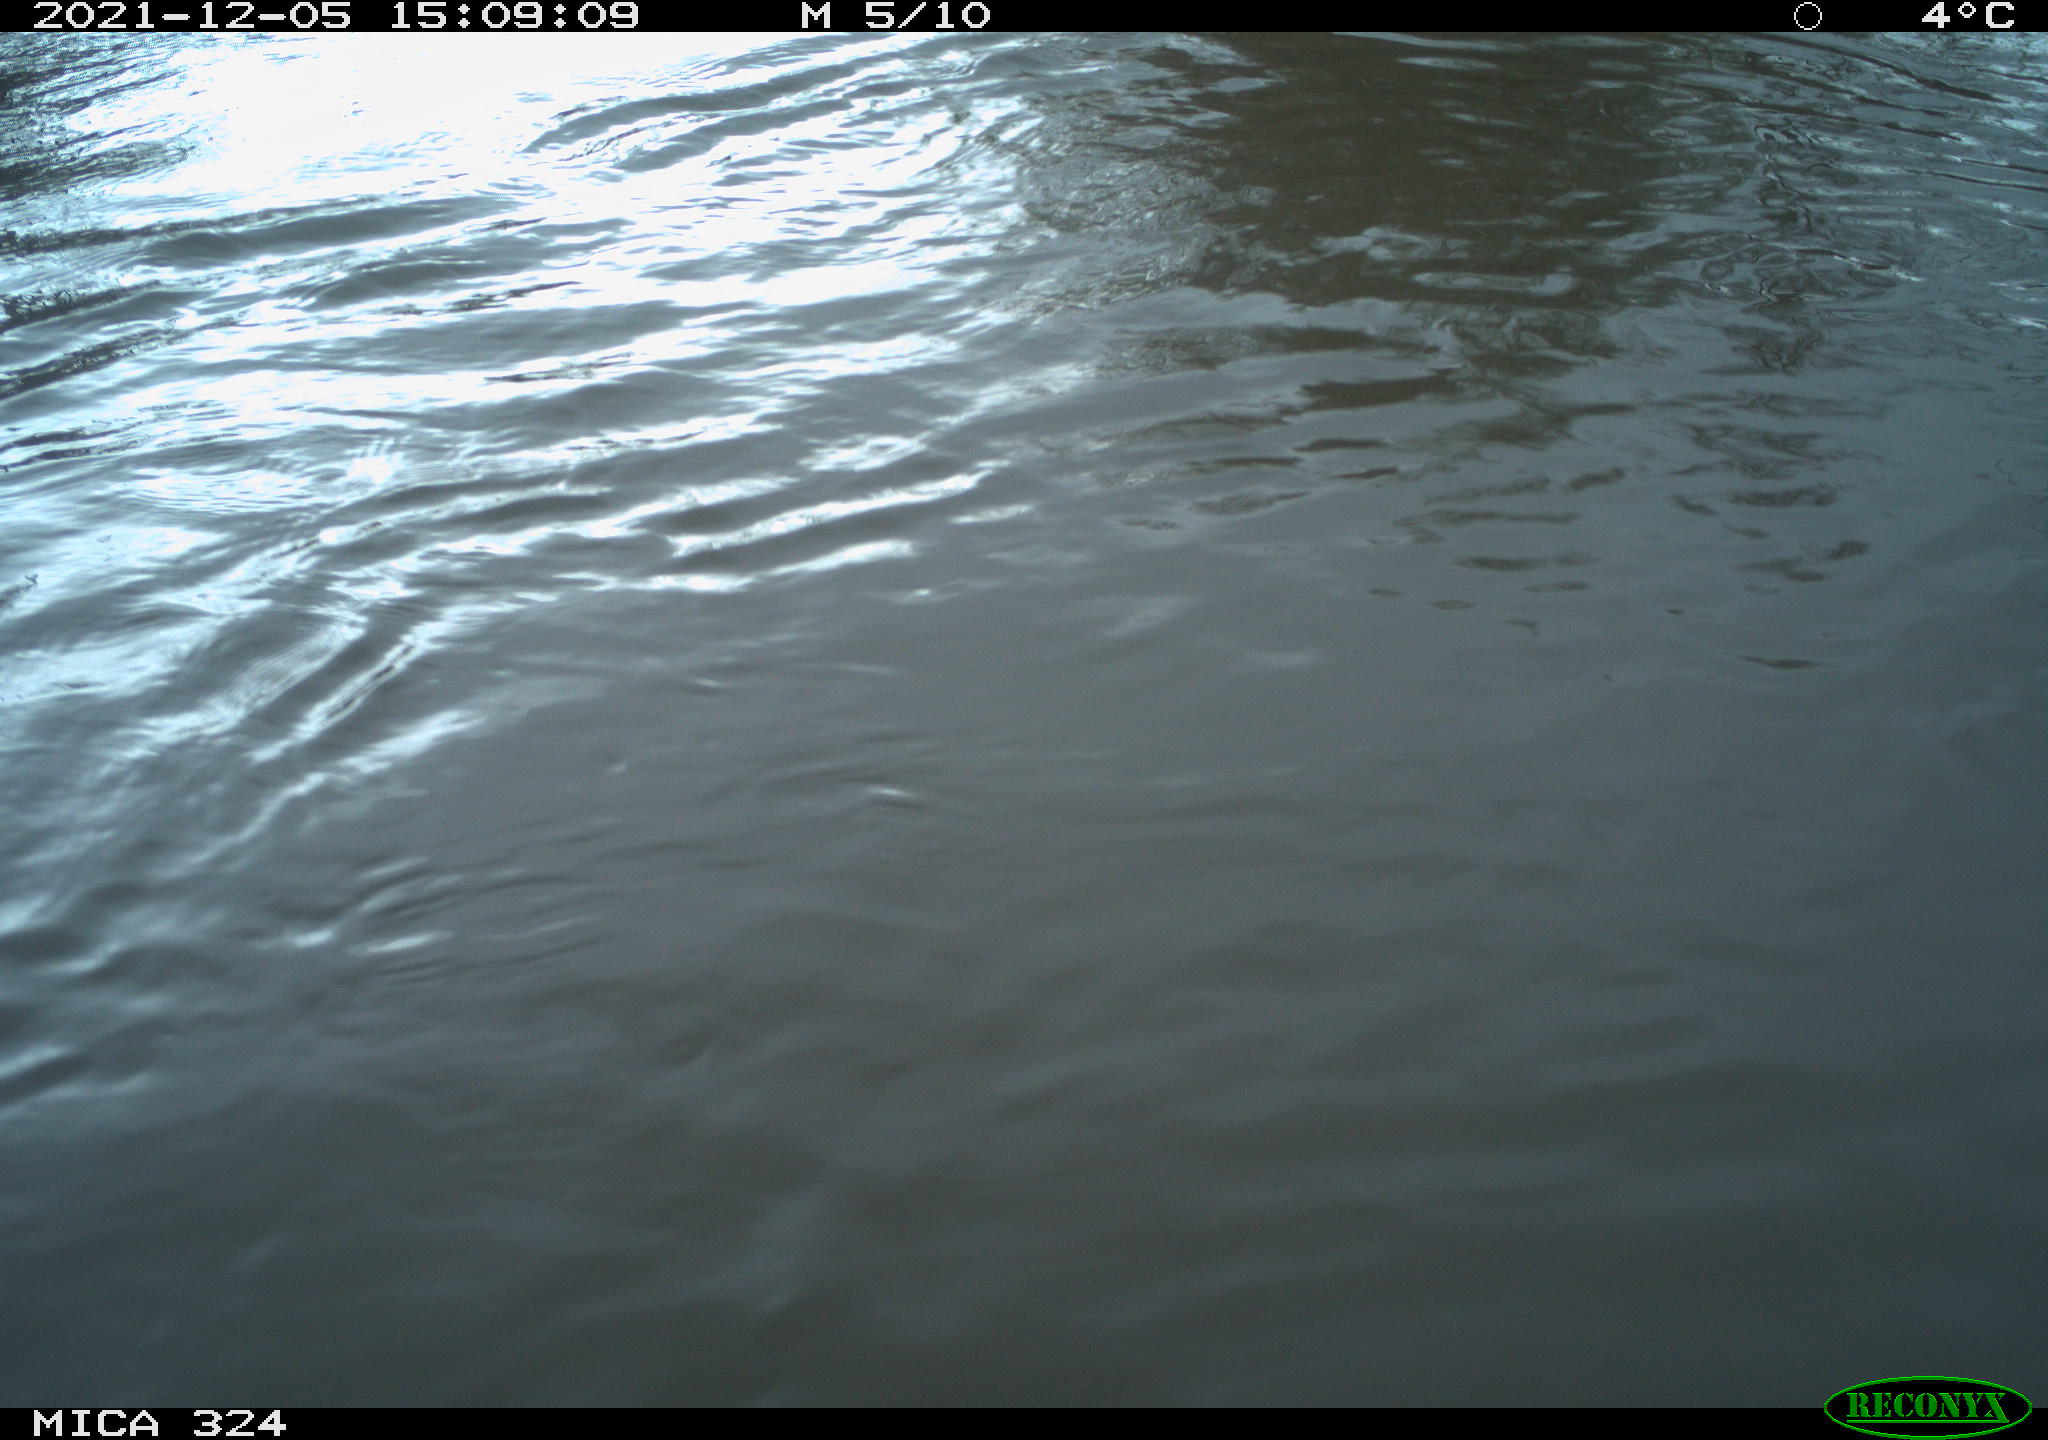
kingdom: Animalia
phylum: Chordata
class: Mammalia
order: Rodentia
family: Cricetidae
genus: Ondatra
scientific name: Ondatra zibethicus
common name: Muskrat
